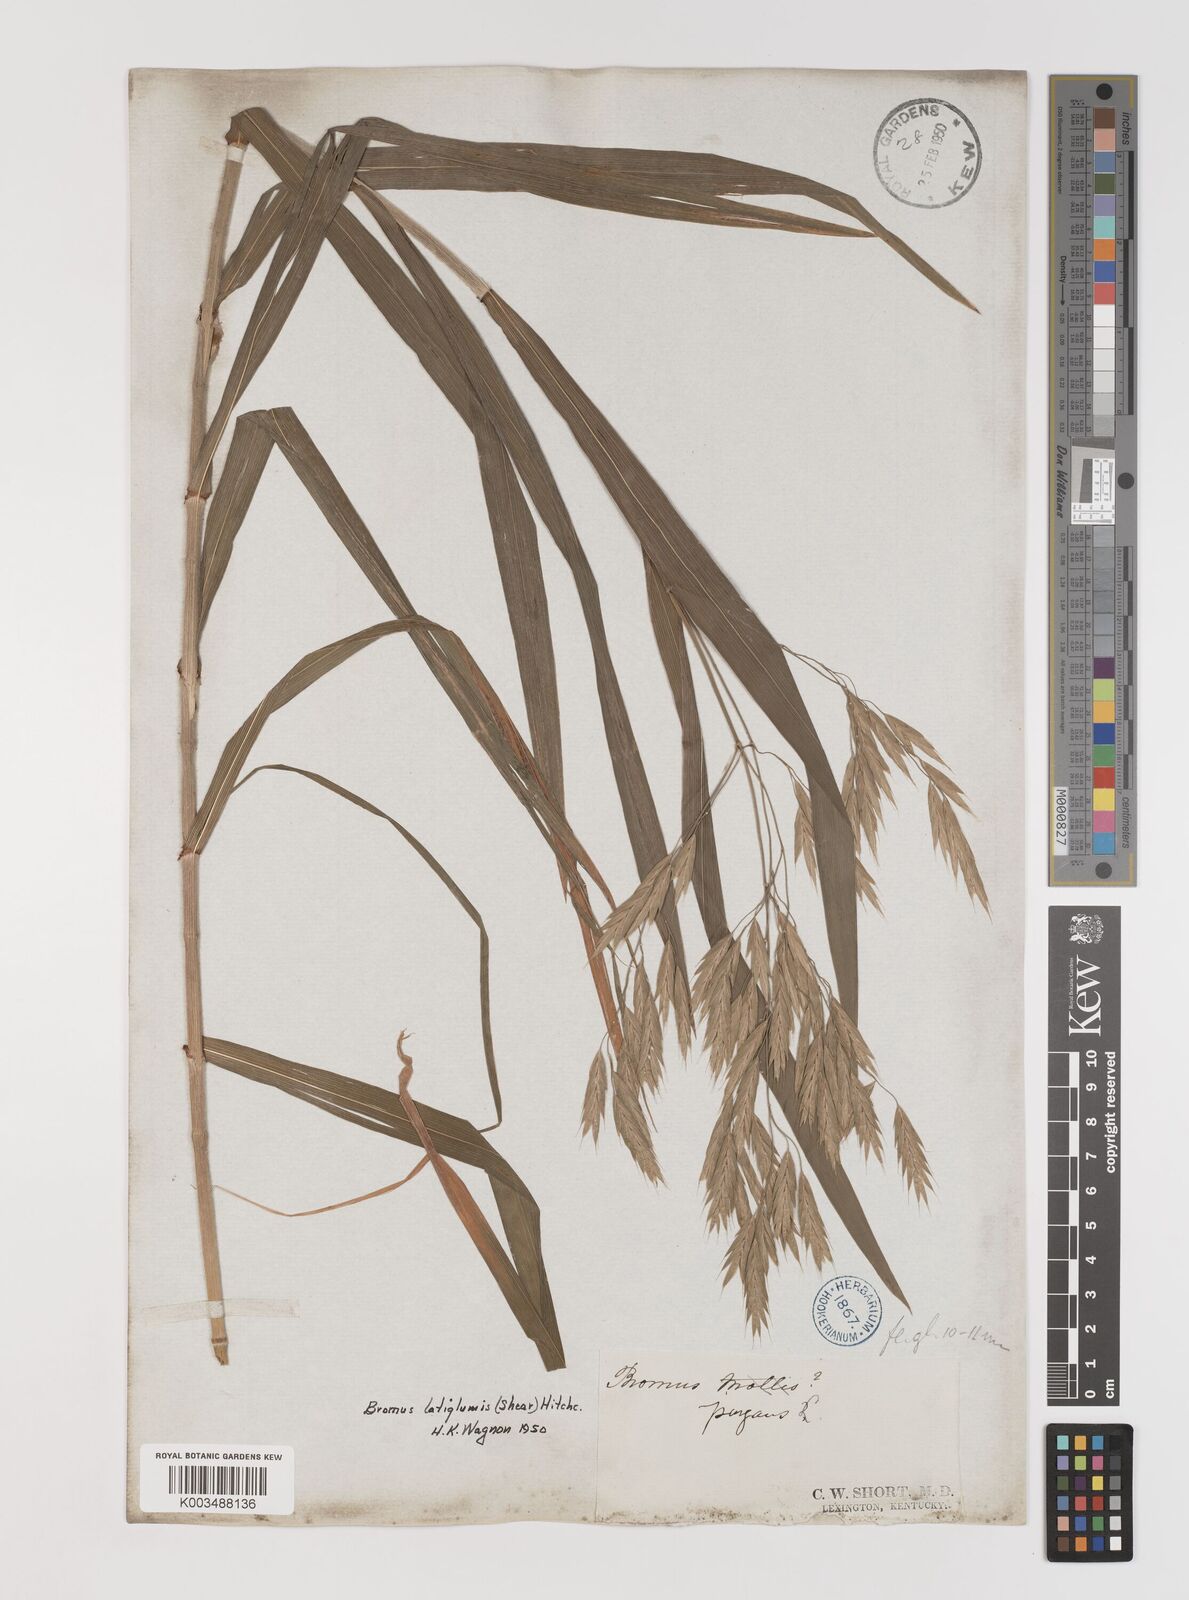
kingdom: Plantae
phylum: Tracheophyta
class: Liliopsida
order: Poales
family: Poaceae
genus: Bromus
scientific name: Bromus latiglumis
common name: Broad-glumed brome
